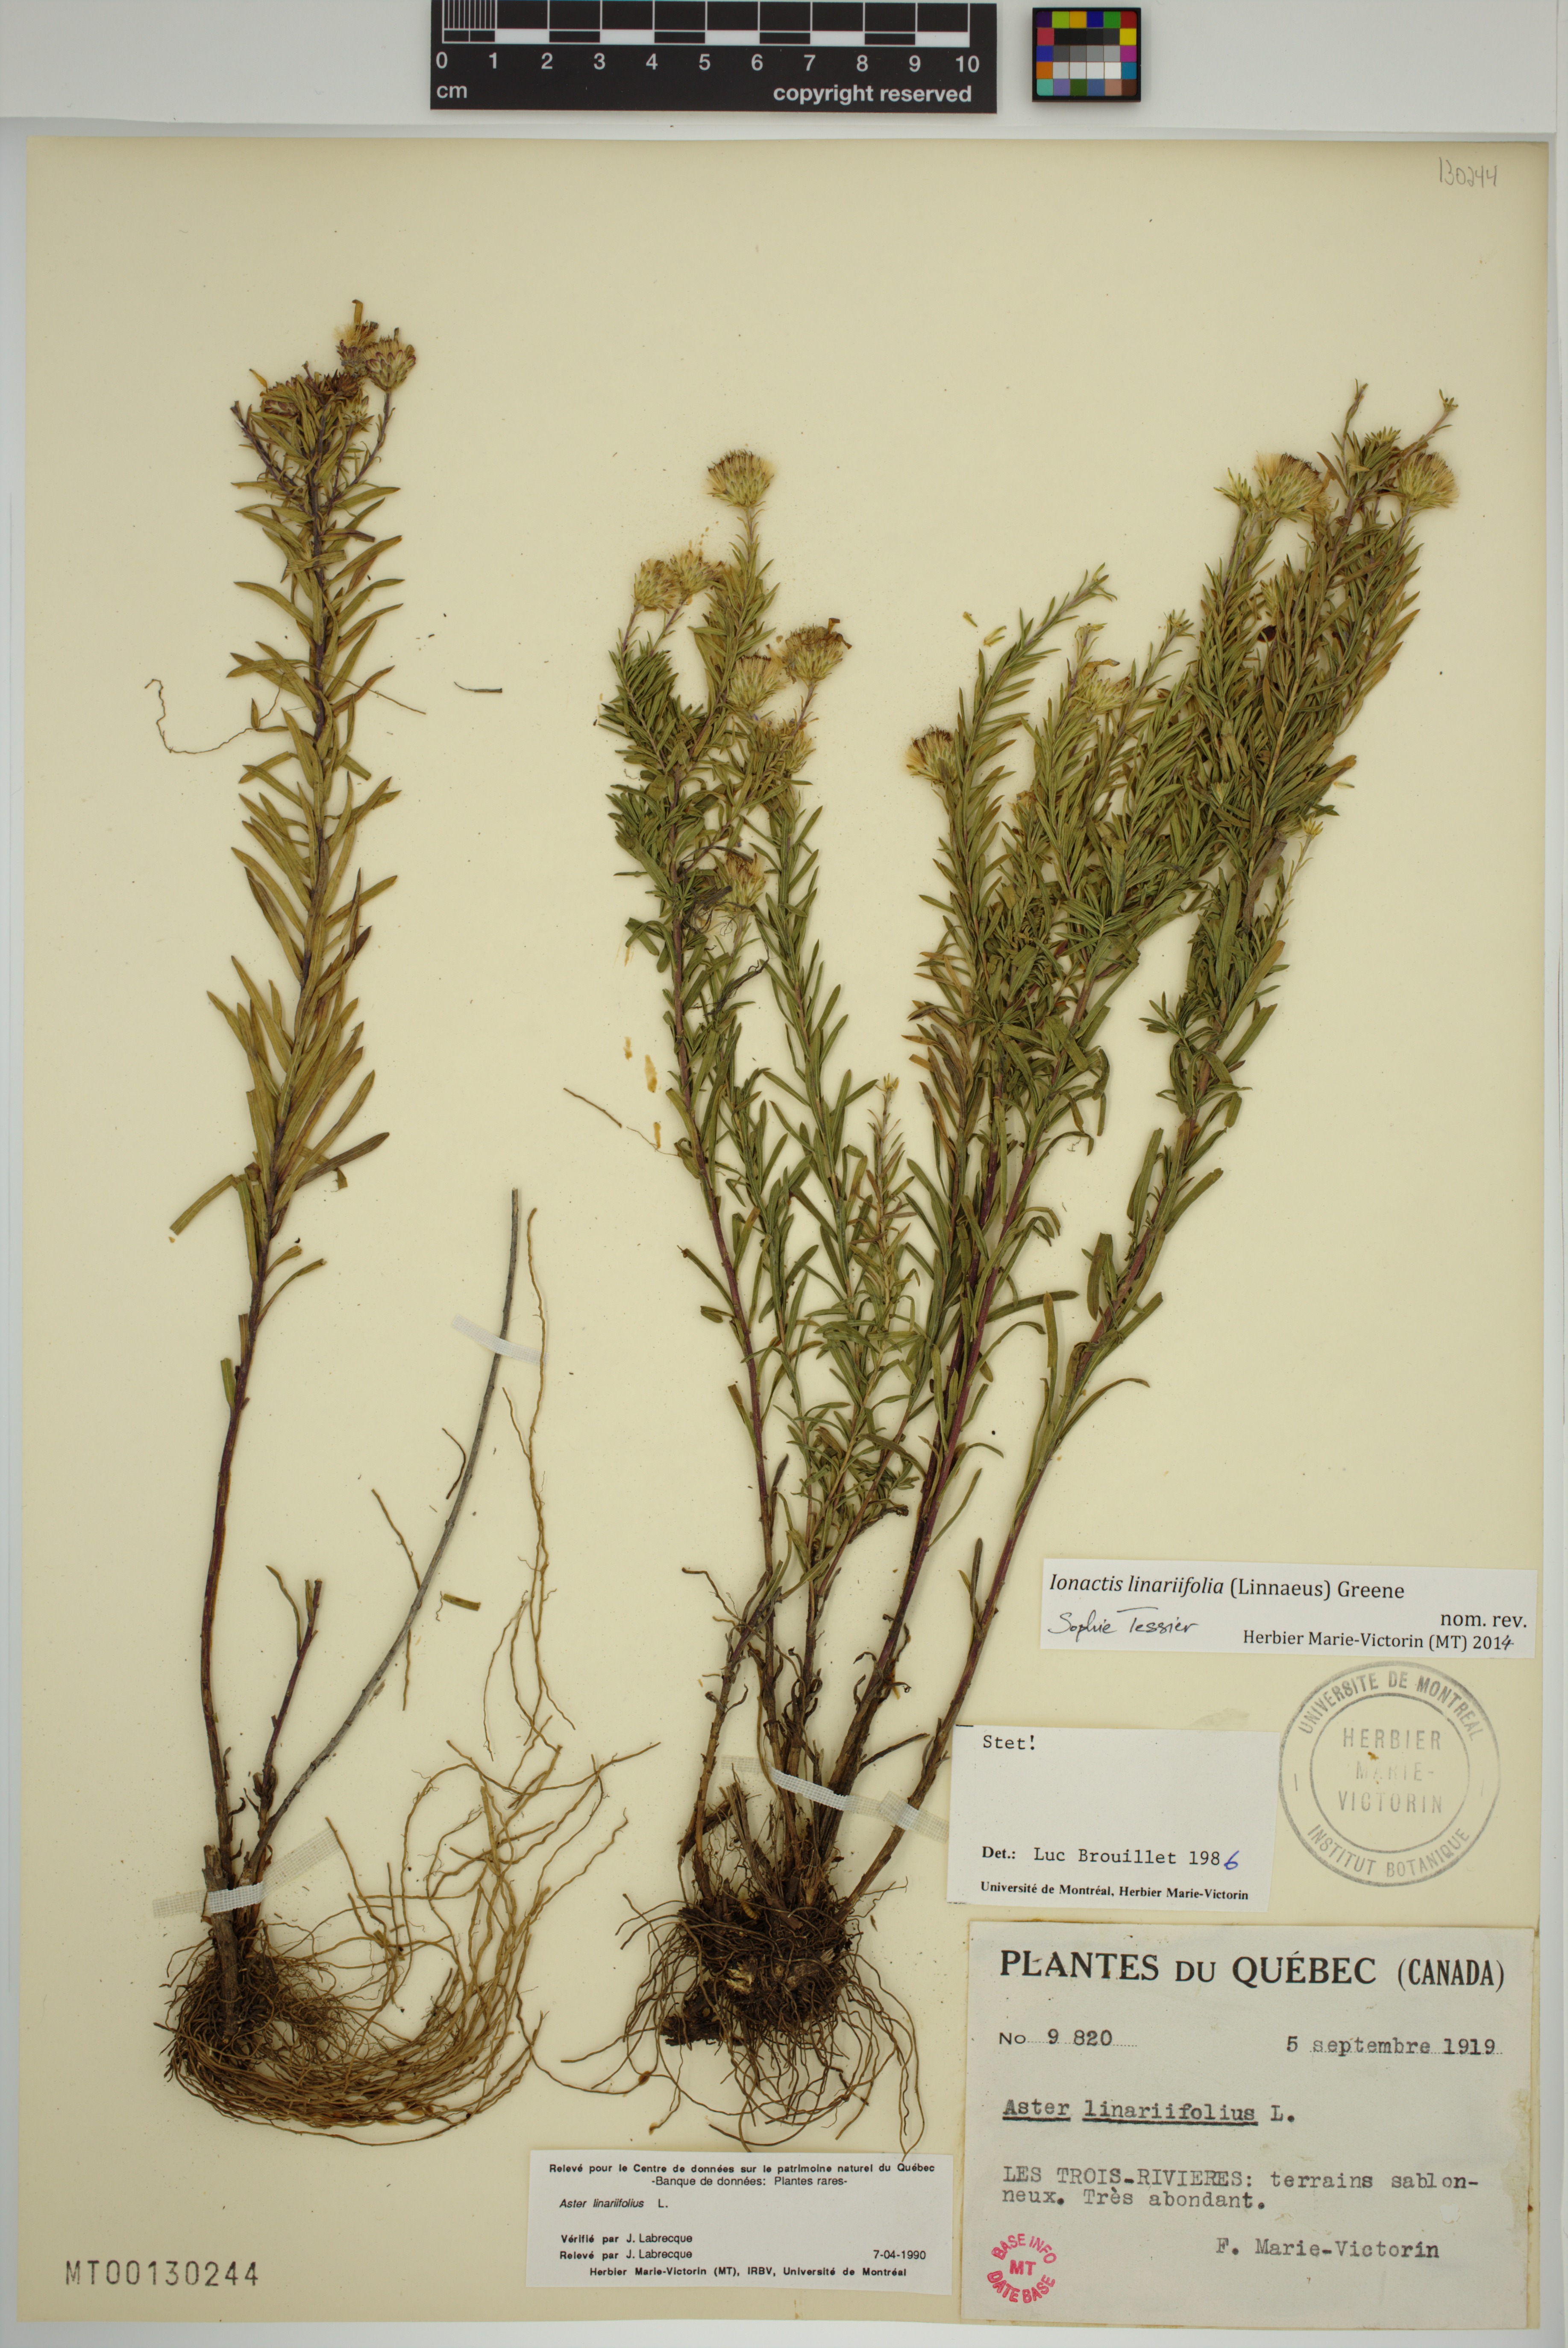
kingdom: Plantae
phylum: Tracheophyta
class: Magnoliopsida
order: Asterales
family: Asteraceae
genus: Ionactis
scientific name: Ionactis linariifolia
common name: Flax-leaf aster
